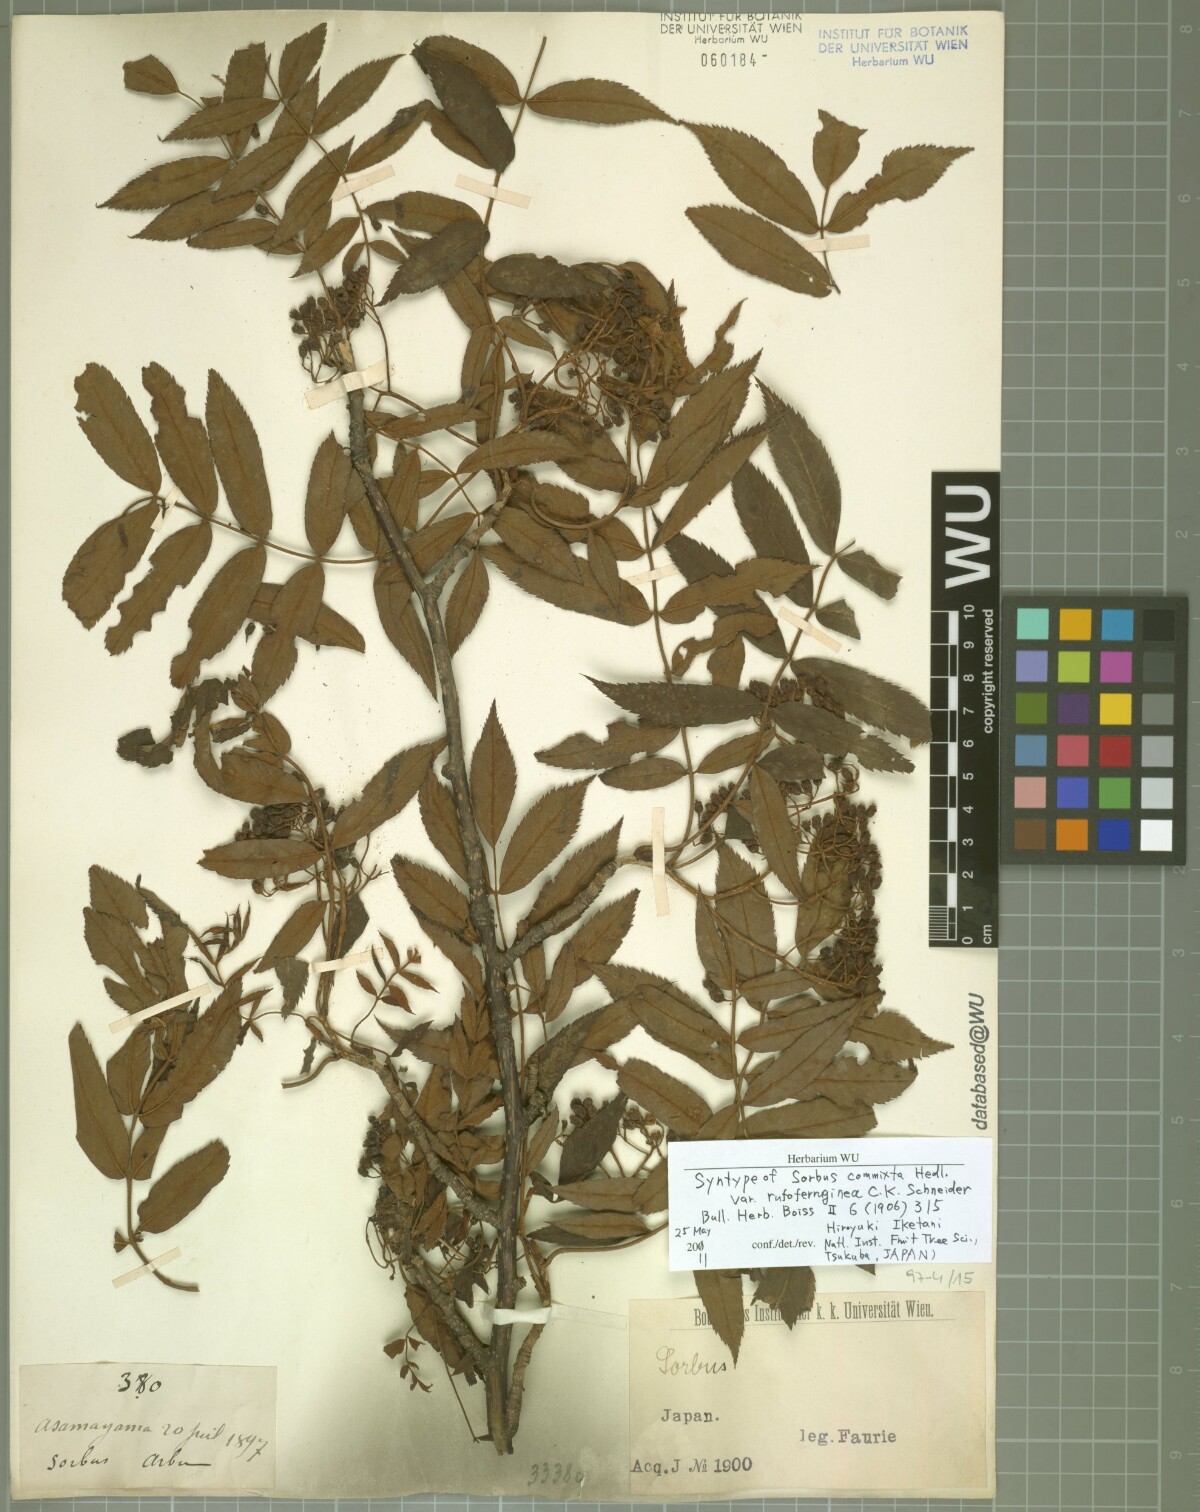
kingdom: Plantae
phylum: Tracheophyta
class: Magnoliopsida
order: Rosales
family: Rosaceae
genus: Sorbus
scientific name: Sorbus commixta
